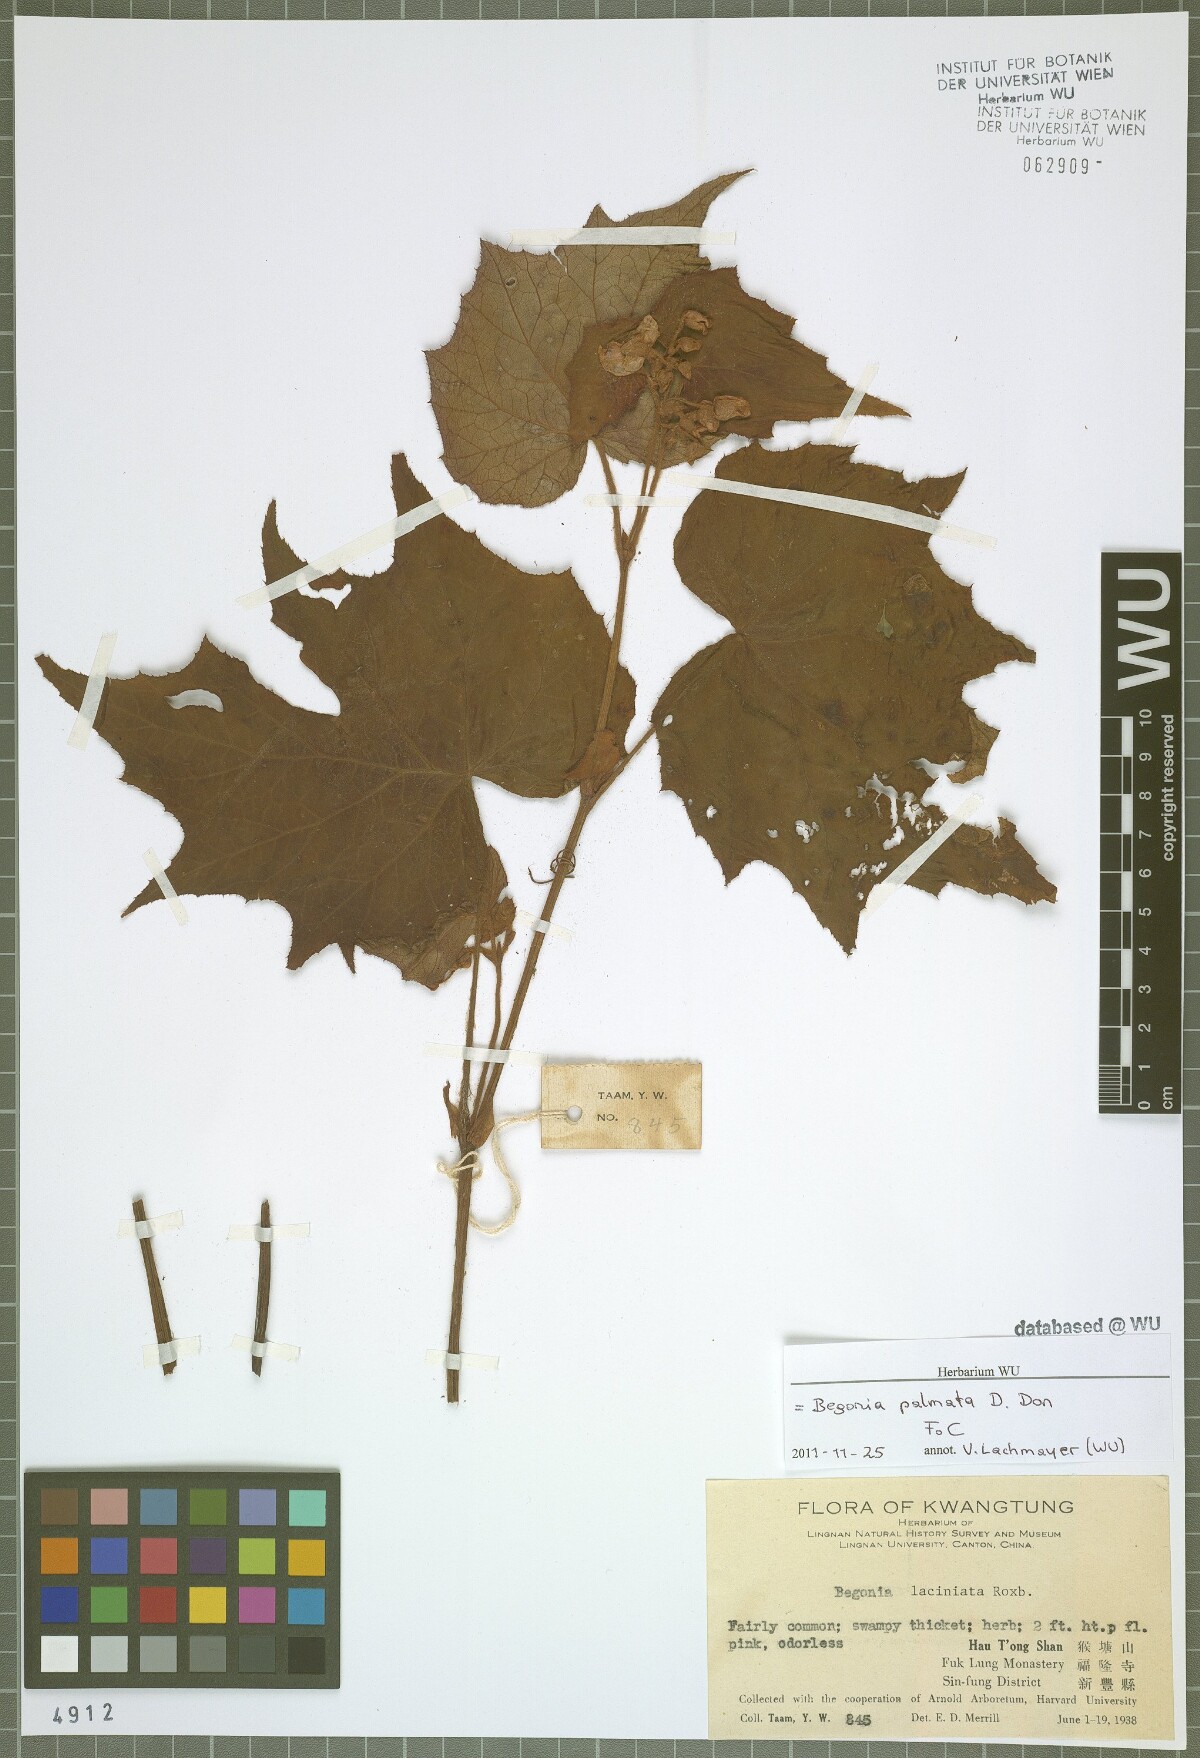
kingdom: Plantae
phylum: Tracheophyta
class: Magnoliopsida
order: Cucurbitales
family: Begoniaceae
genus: Begonia
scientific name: Begonia palmata
